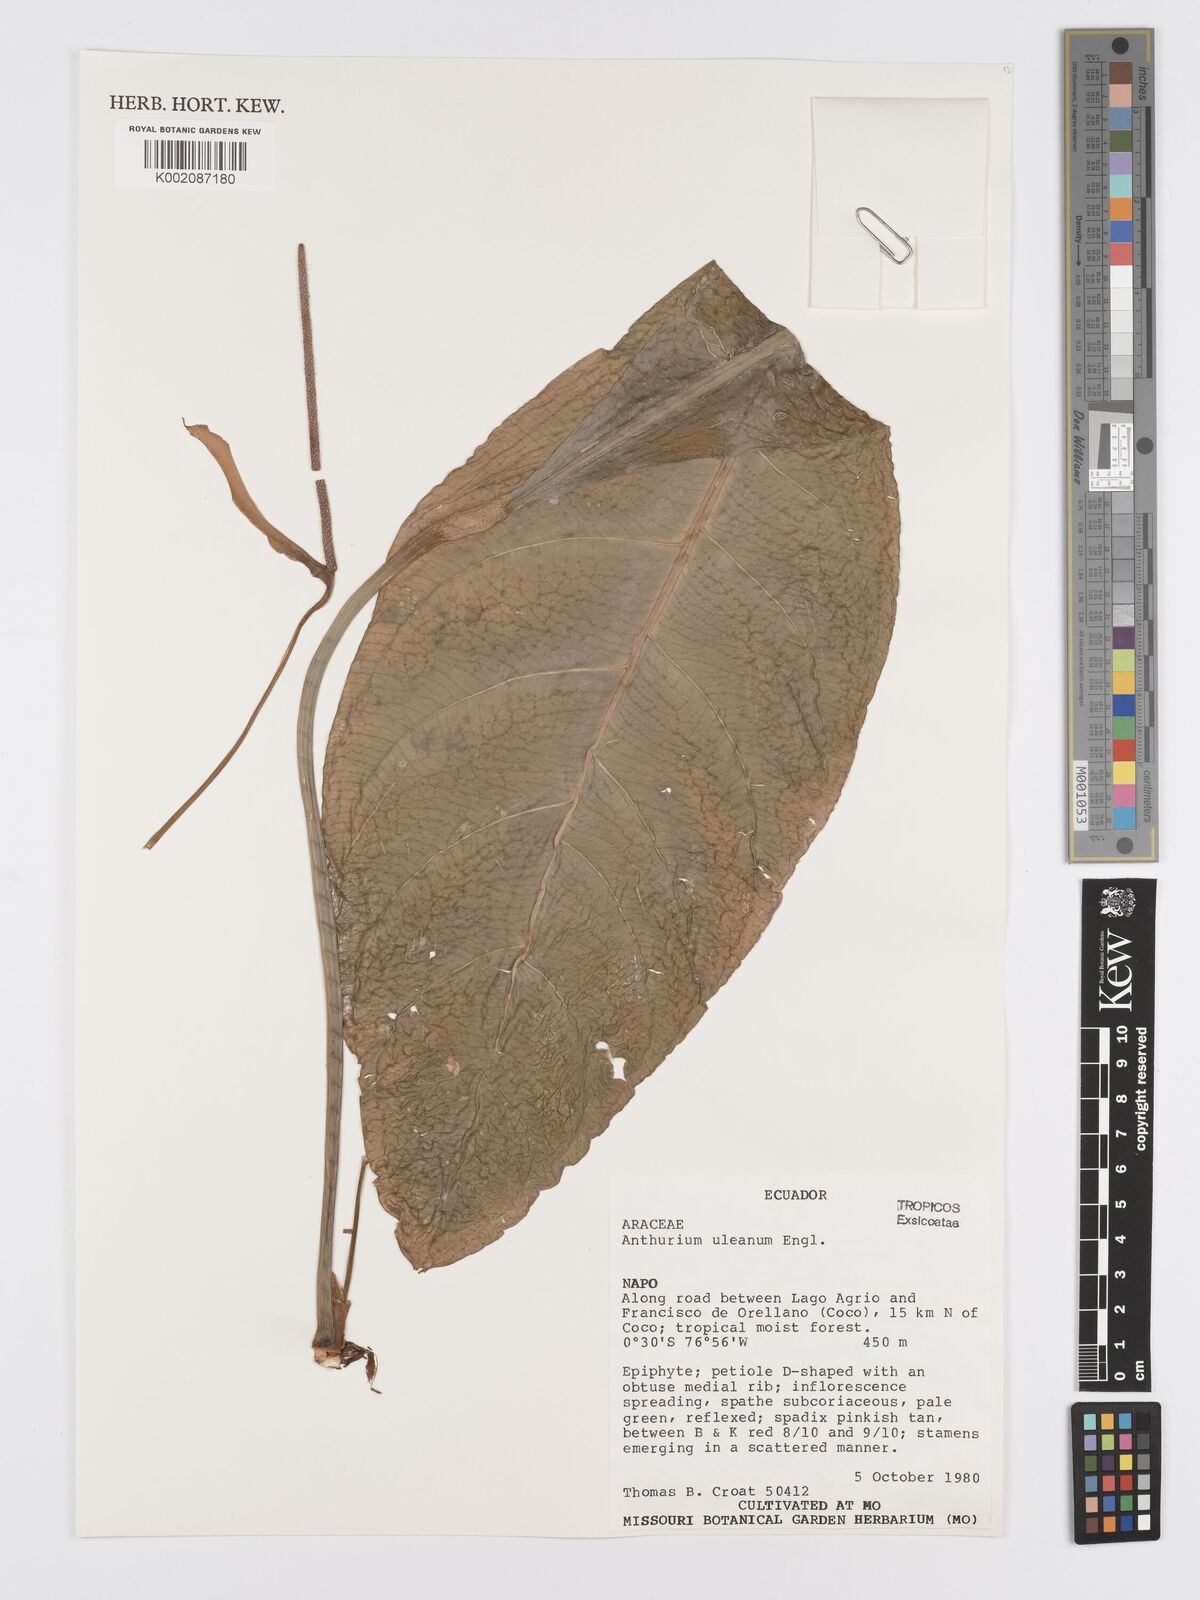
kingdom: Plantae
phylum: Tracheophyta
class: Liliopsida
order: Alismatales
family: Araceae
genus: Anthurium
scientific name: Anthurium uleanum
